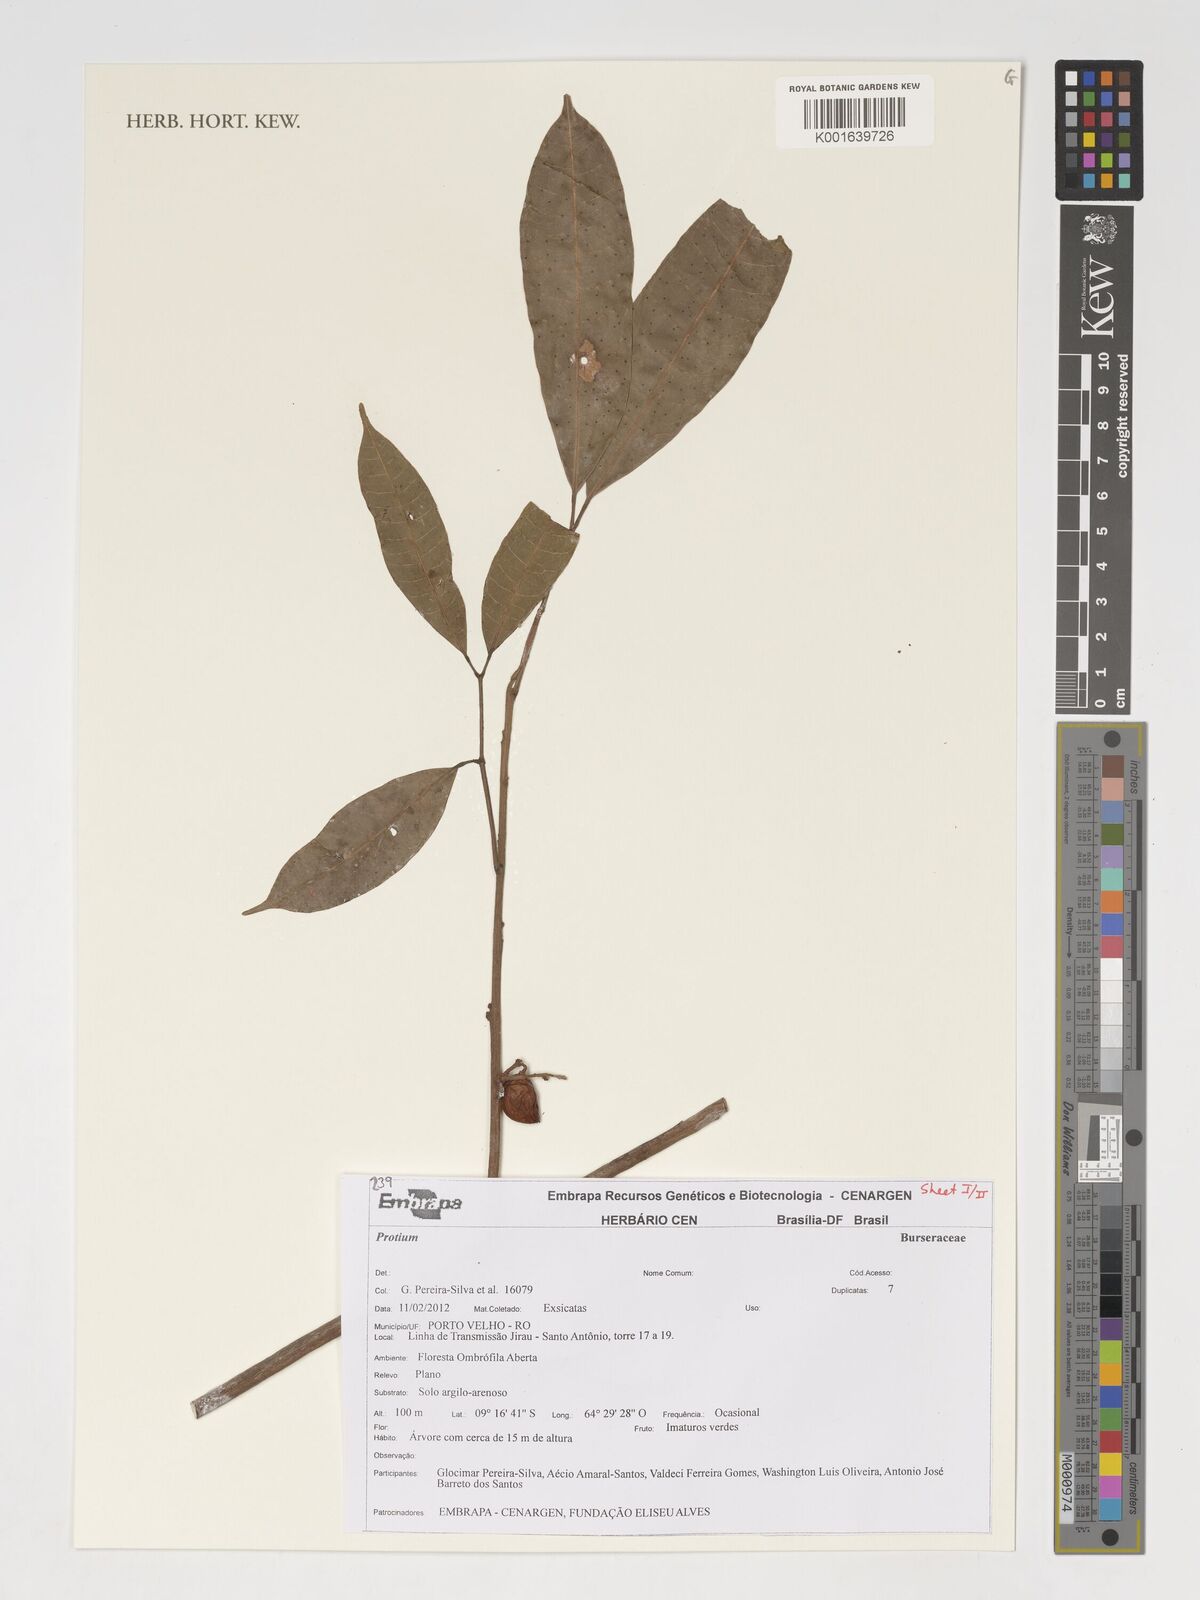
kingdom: Plantae
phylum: Tracheophyta
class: Magnoliopsida
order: Sapindales
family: Burseraceae
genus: Protium
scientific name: Protium
